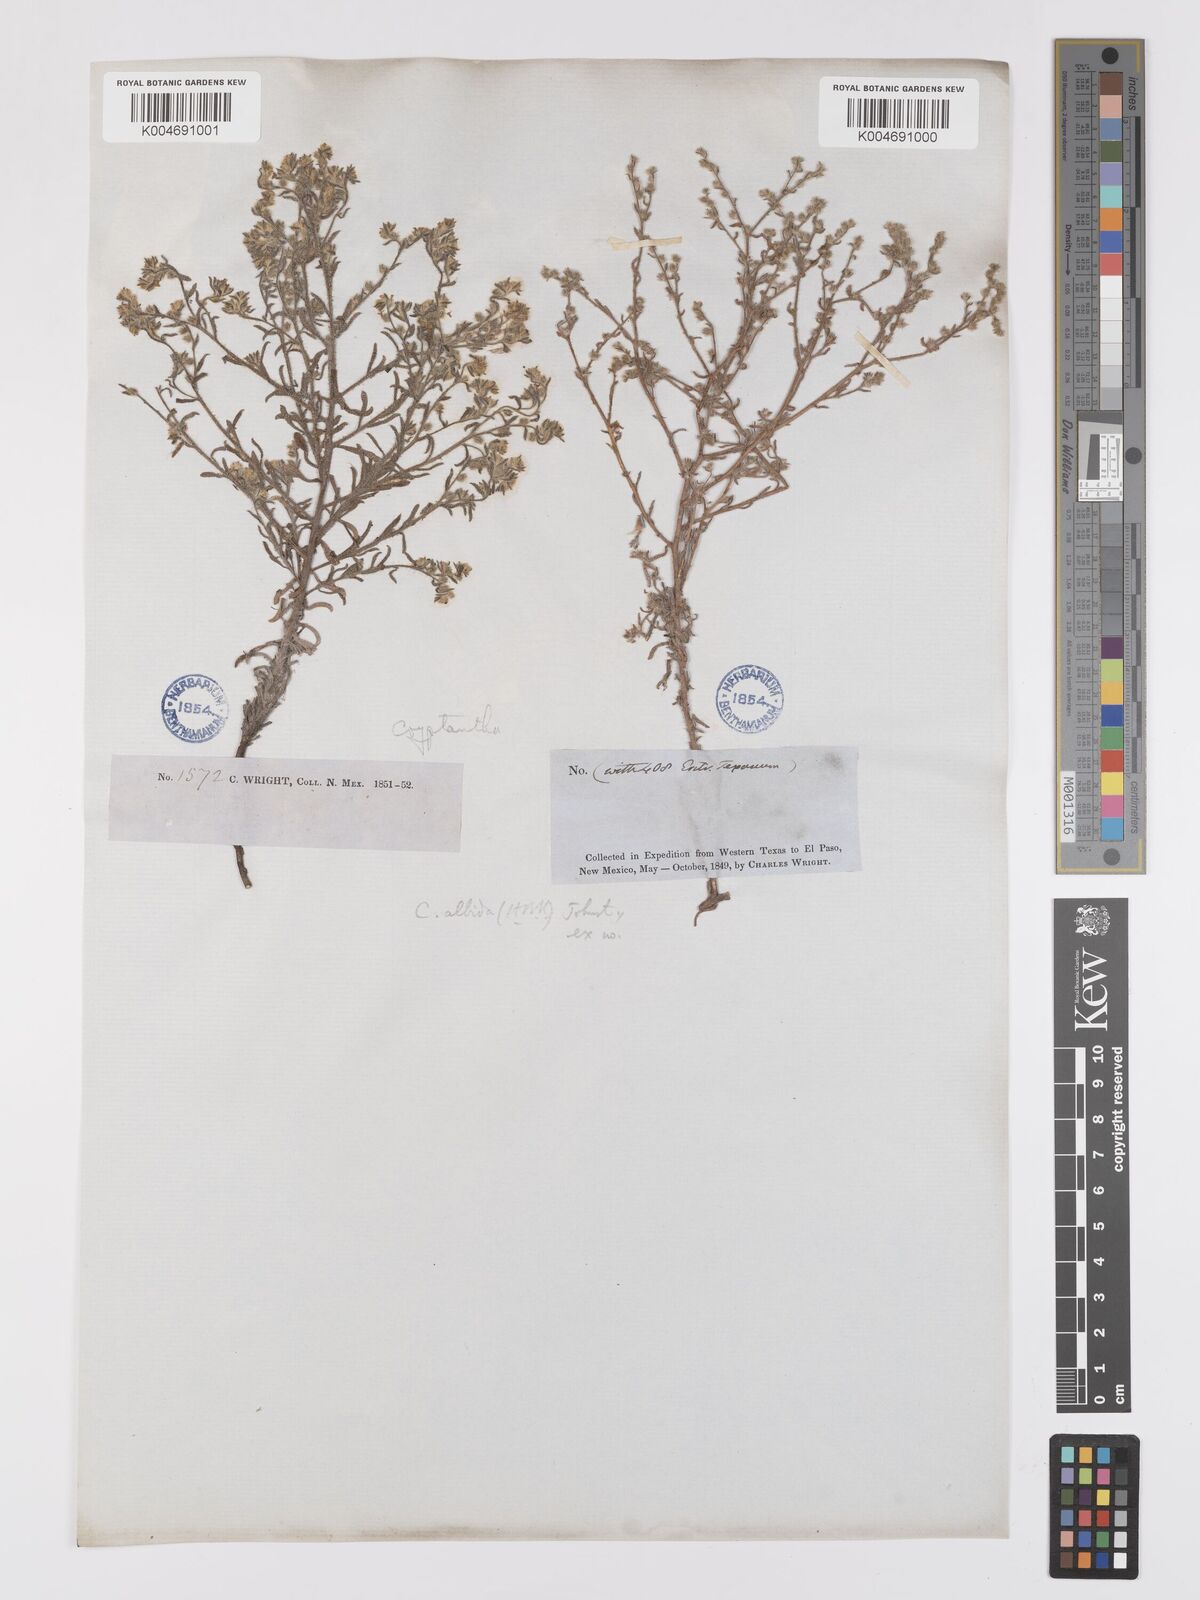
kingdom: Plantae
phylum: Tracheophyta
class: Magnoliopsida
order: Boraginales
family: Boraginaceae
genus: Johnstonella
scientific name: Johnstonella albida
